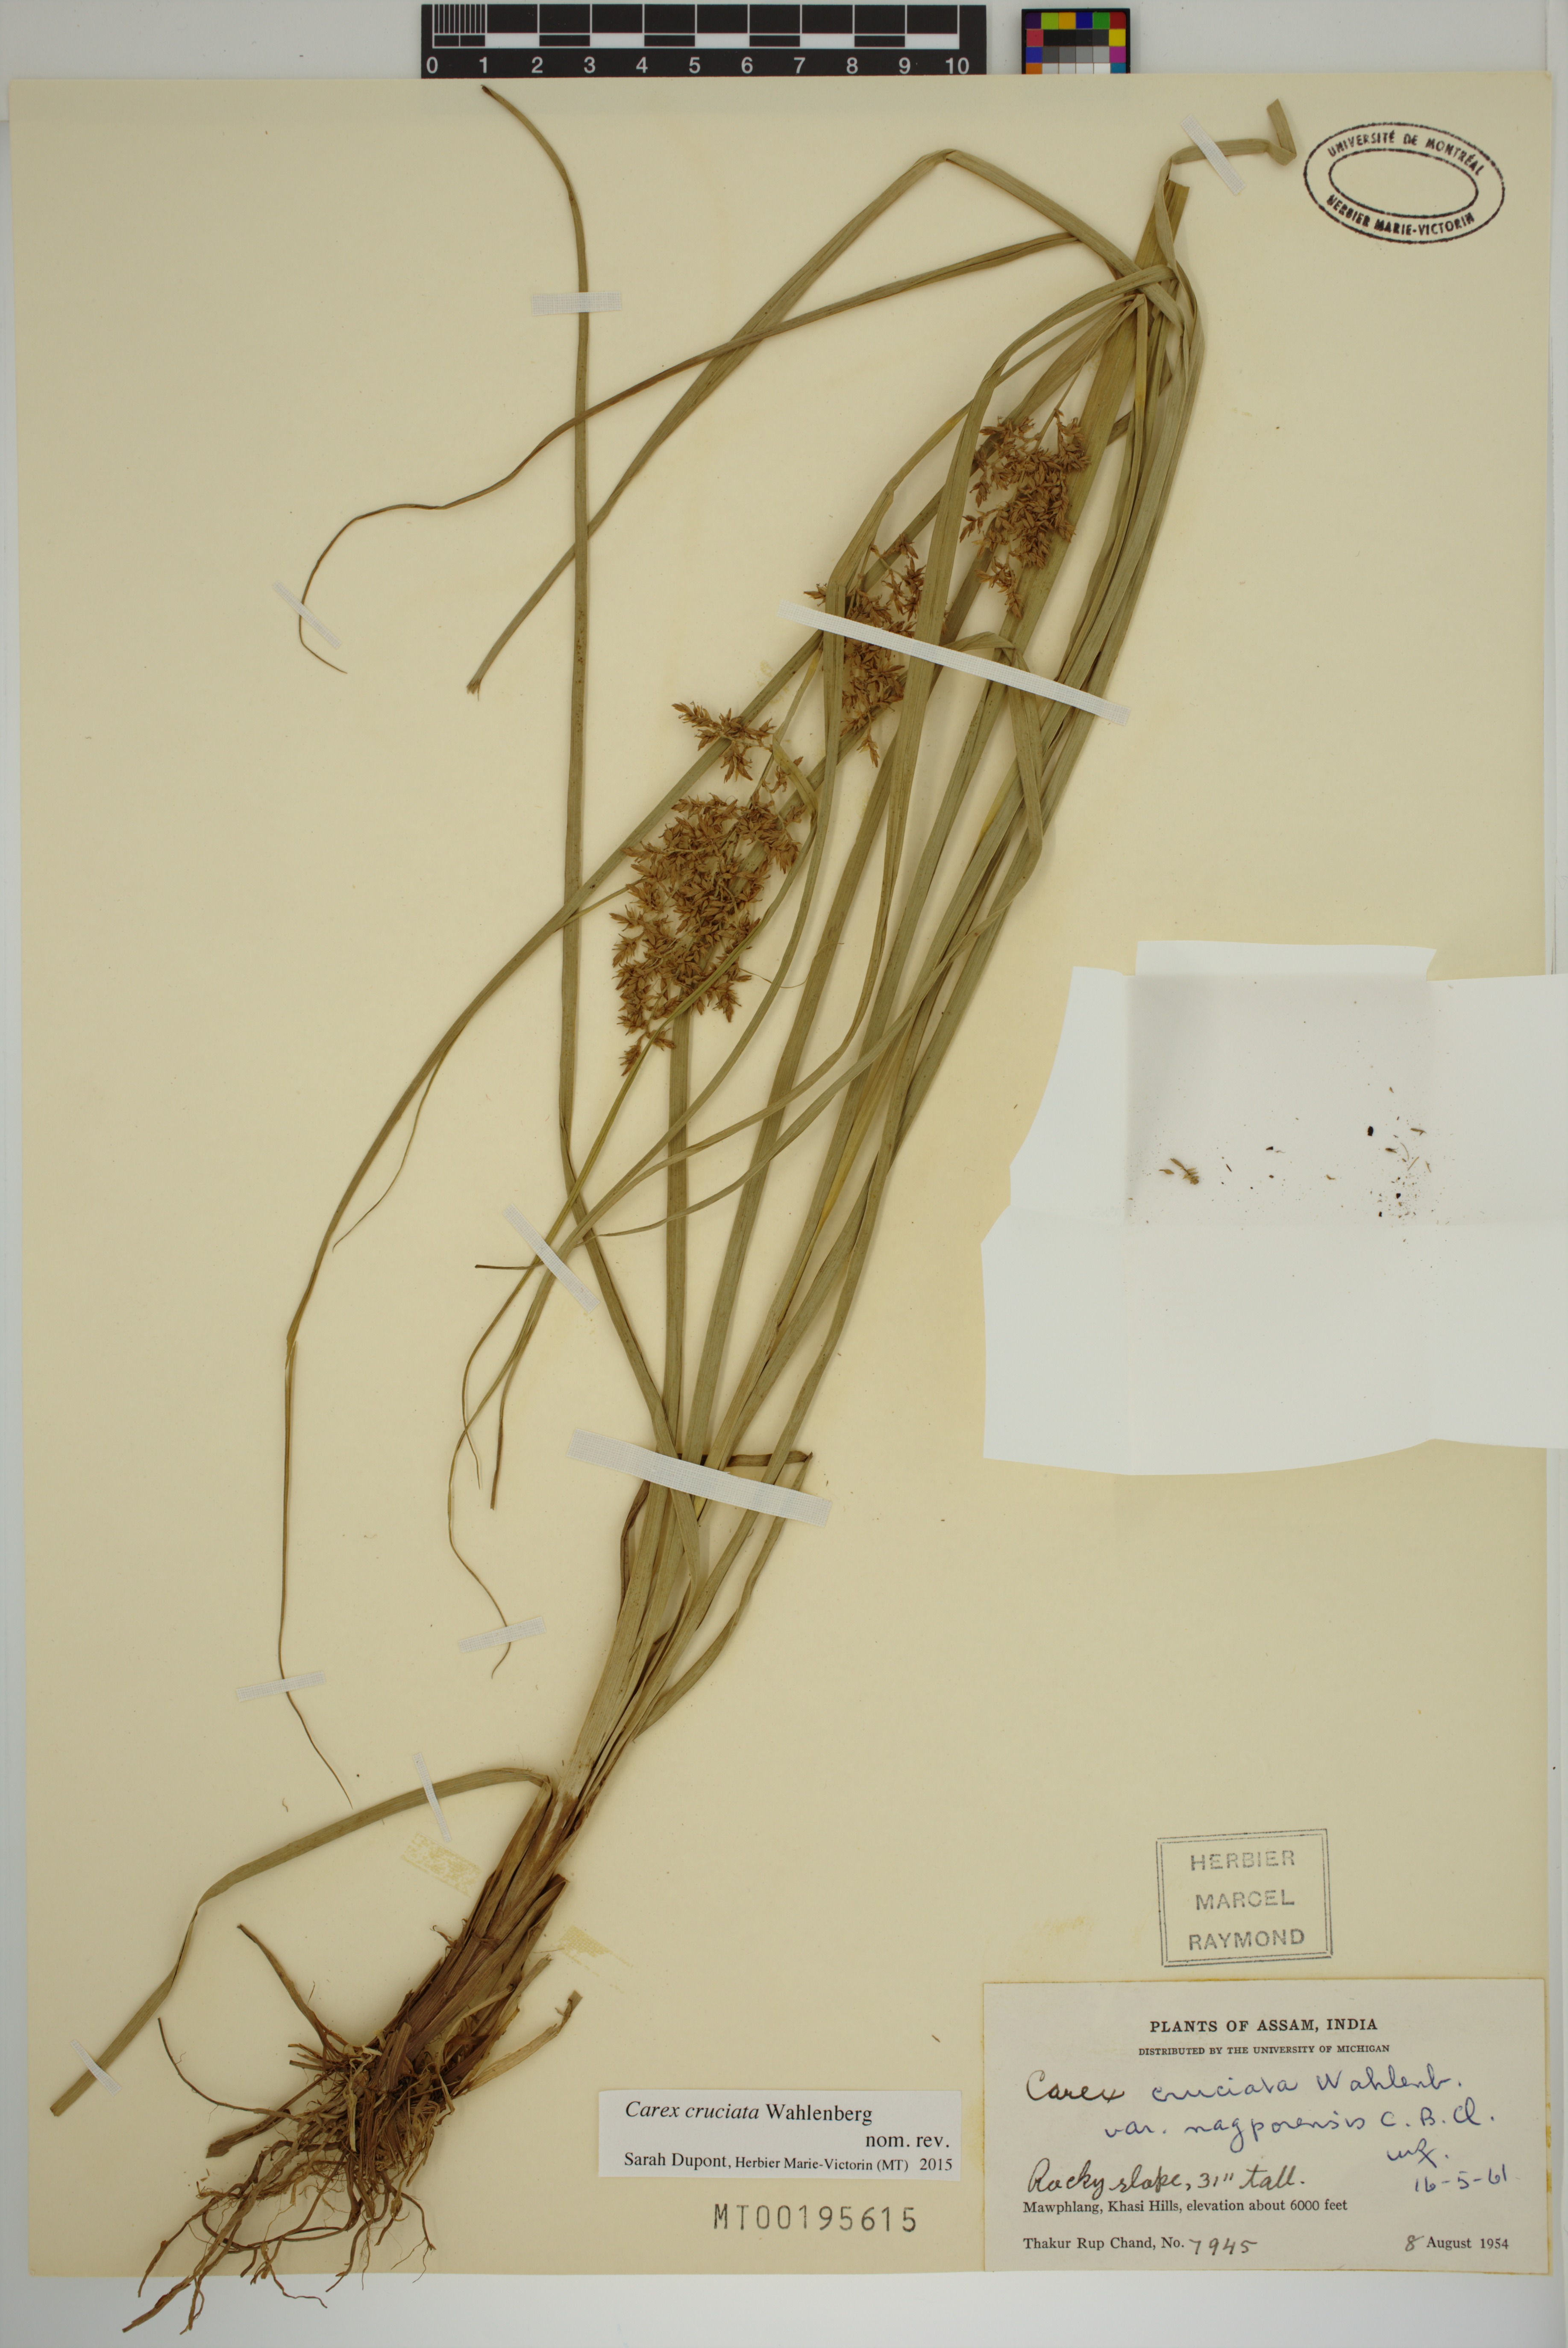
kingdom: Plantae
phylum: Tracheophyta
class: Liliopsida
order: Poales
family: Cyperaceae
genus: Carex
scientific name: Carex cruciata
